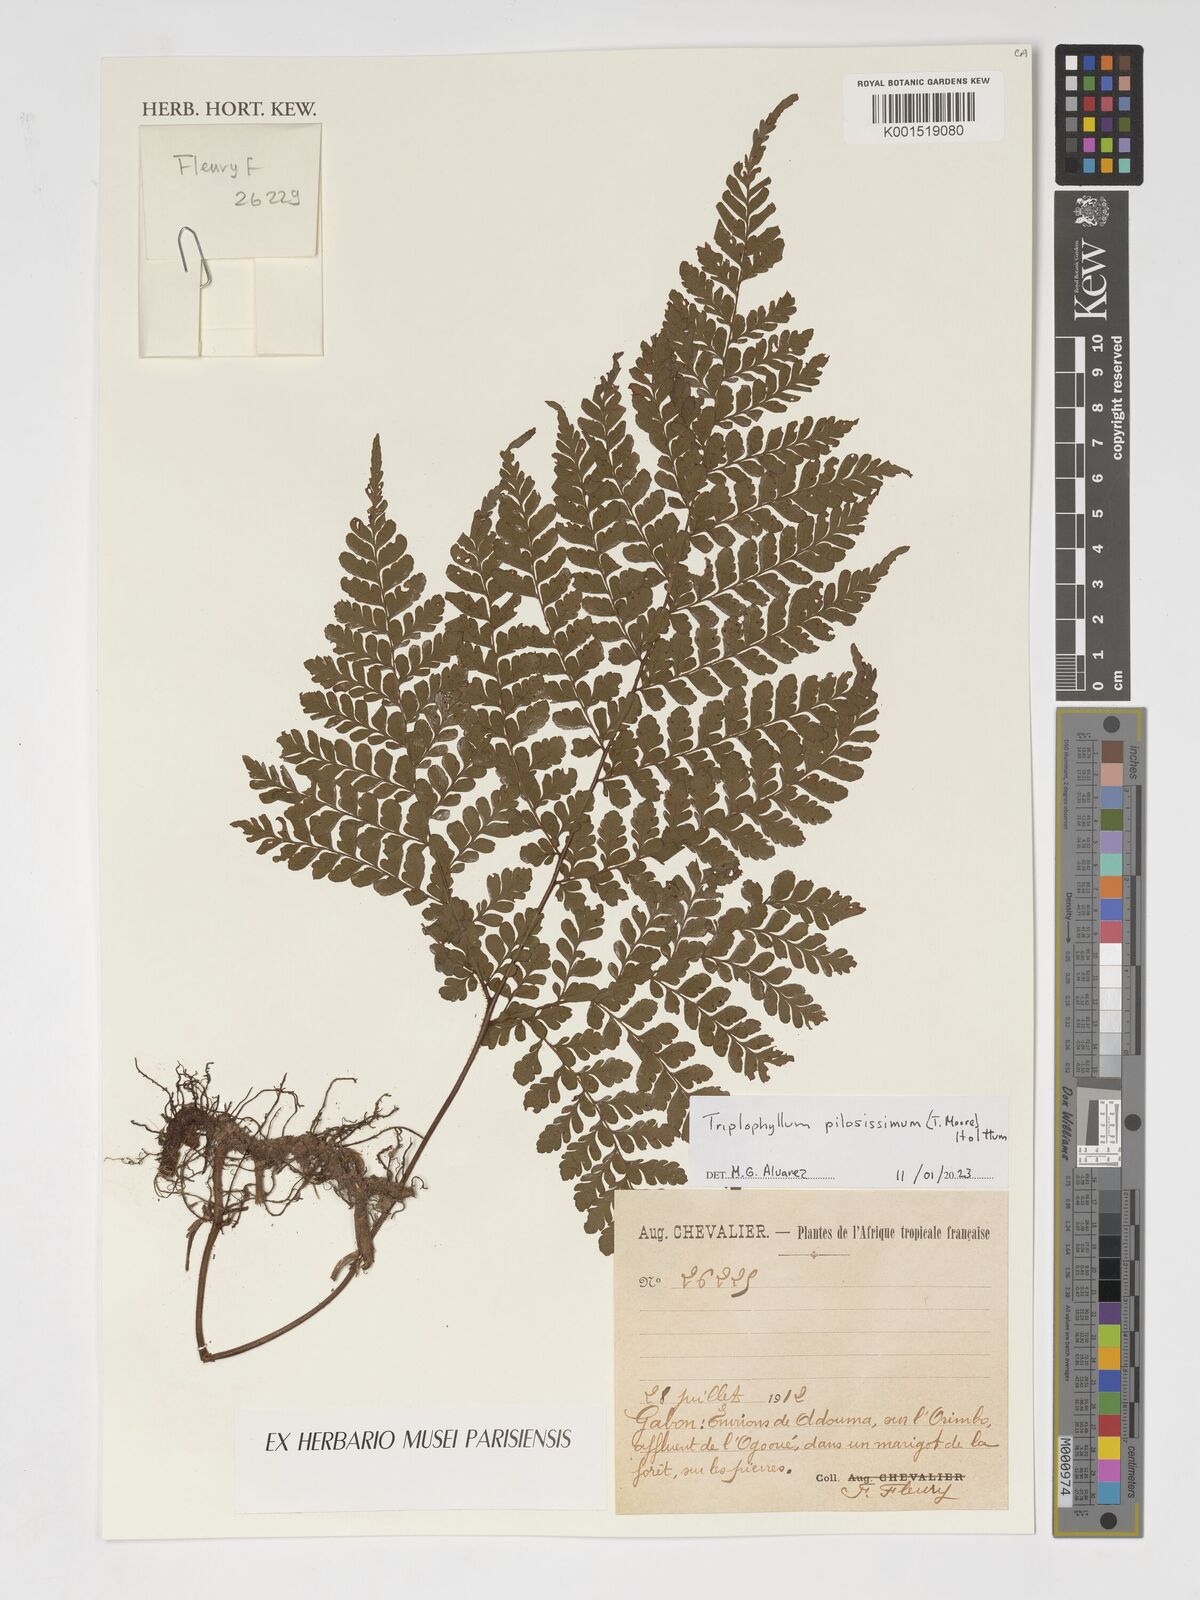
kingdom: Plantae
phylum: Tracheophyta
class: Polypodiopsida
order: Polypodiales
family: Tectariaceae
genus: Triplophyllum
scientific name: Triplophyllum pilosissimum
